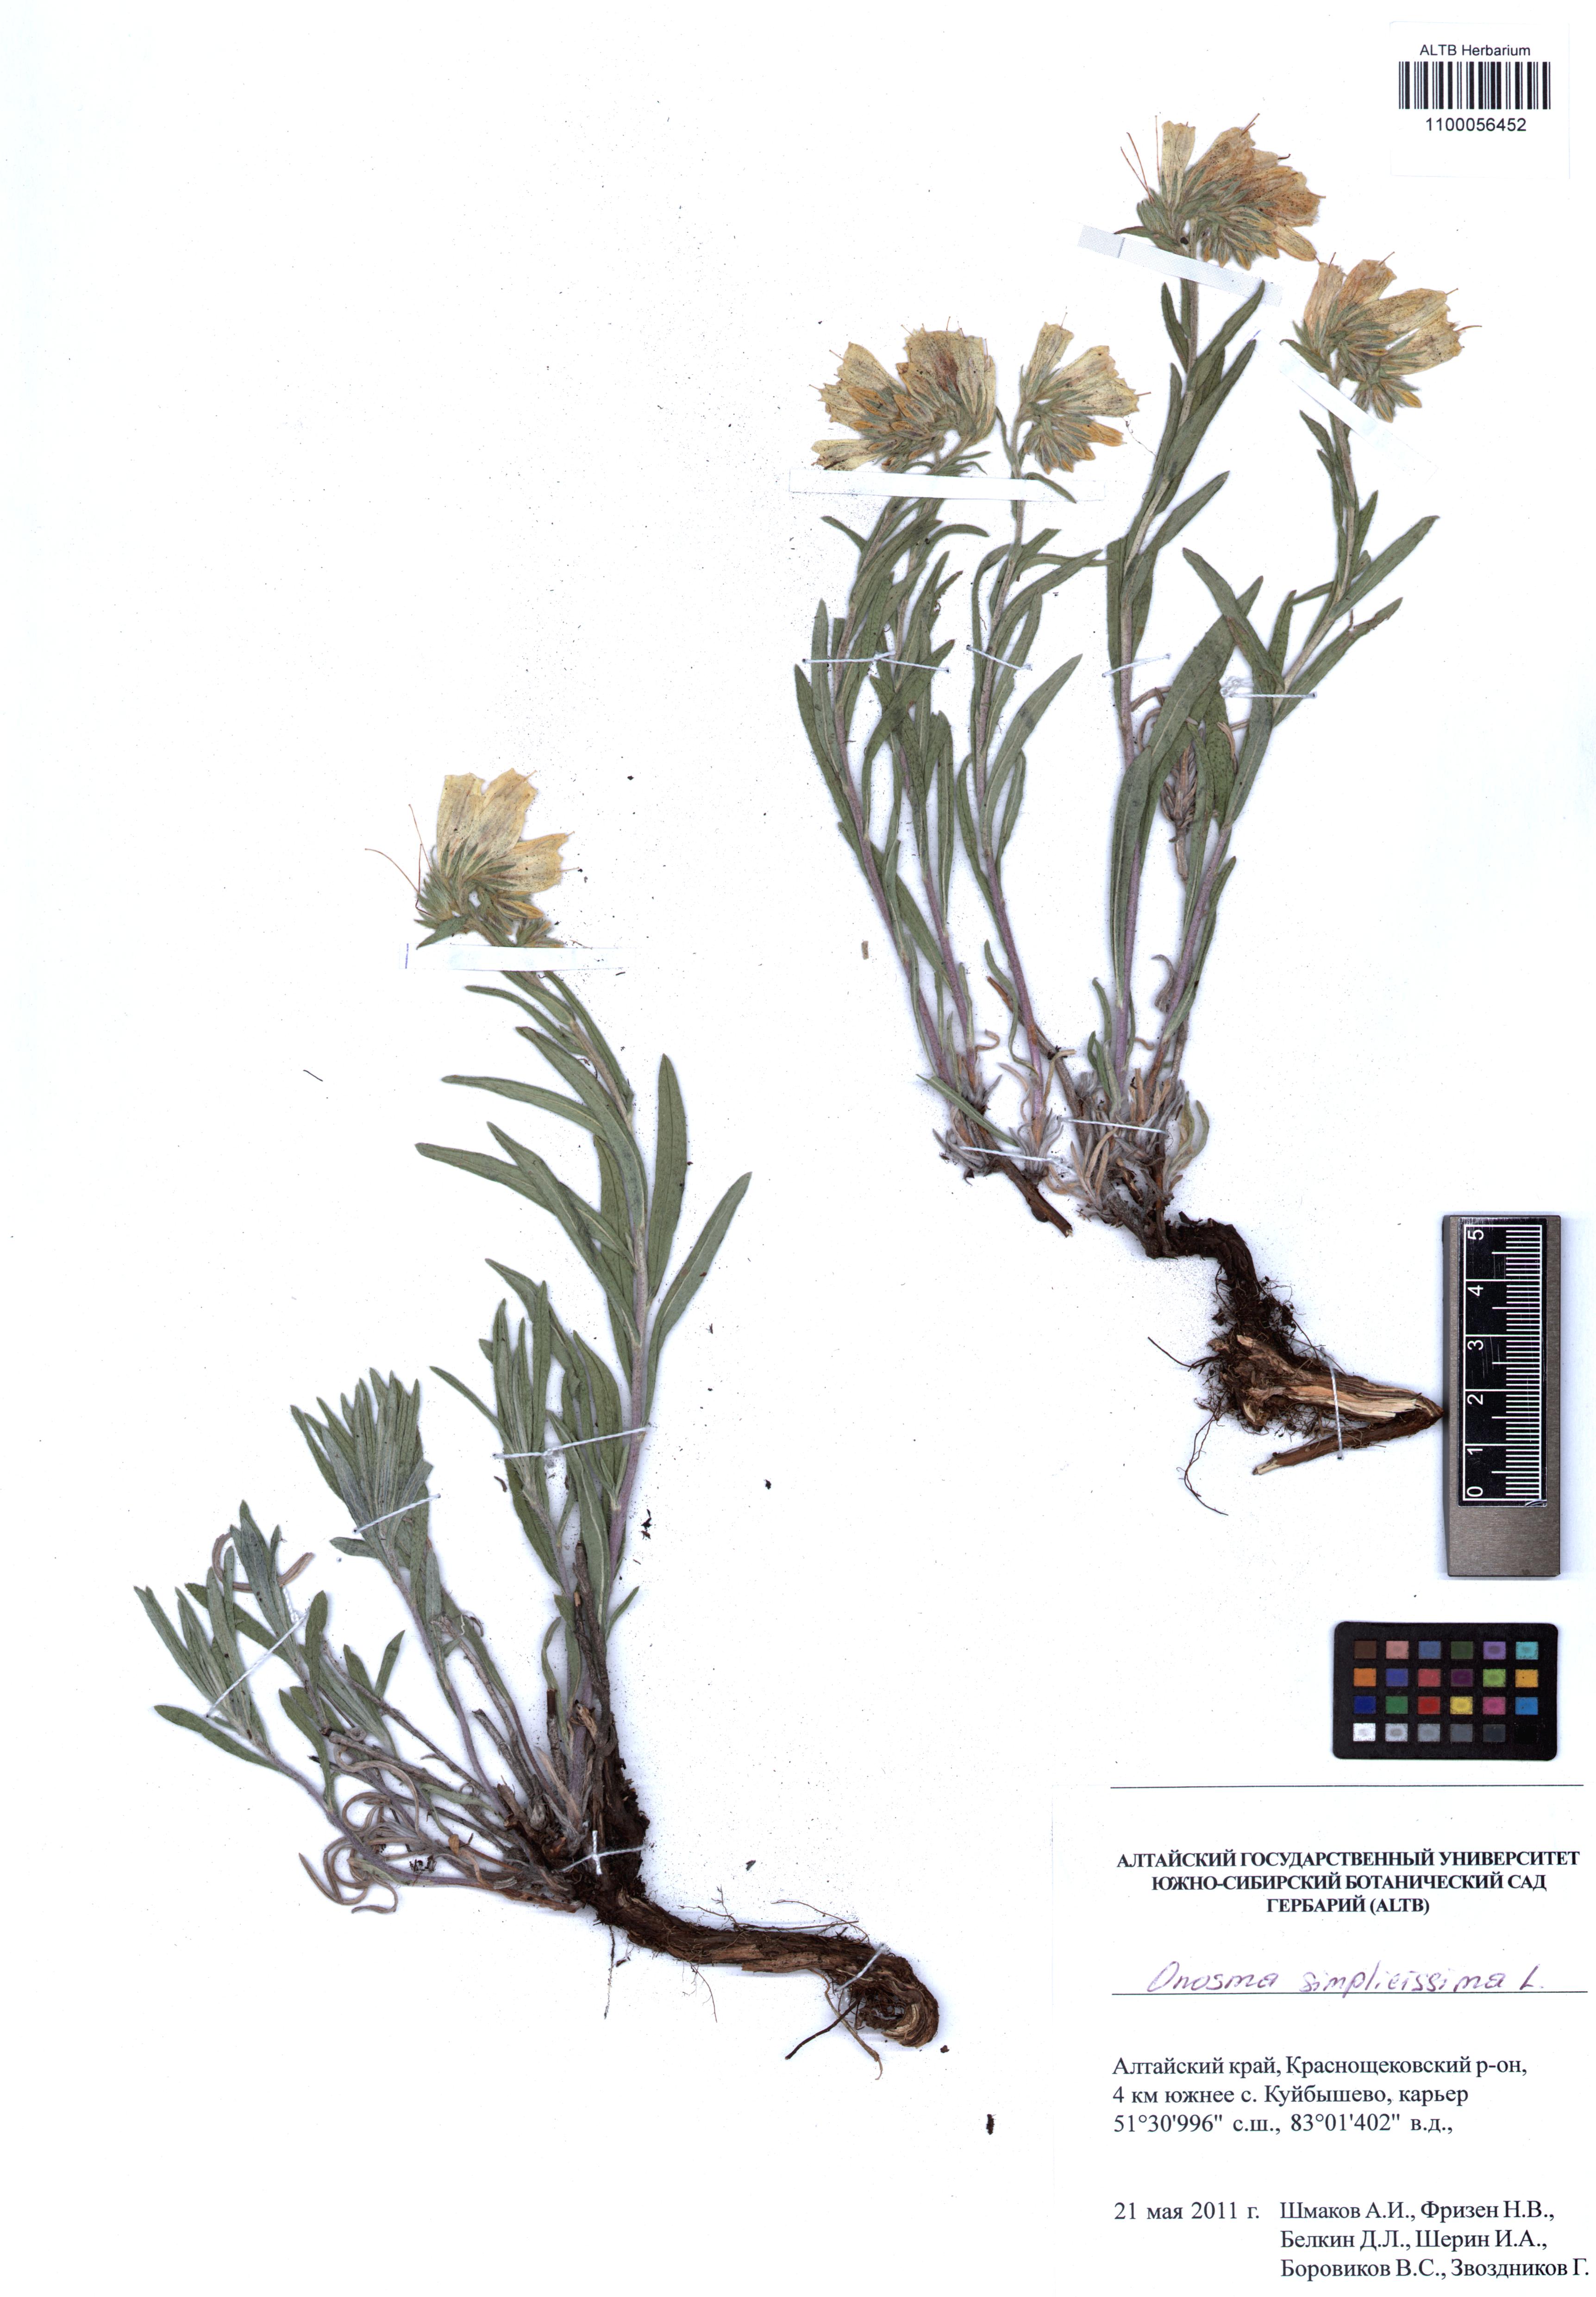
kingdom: Plantae
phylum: Tracheophyta
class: Magnoliopsida
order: Boraginales
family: Boraginaceae
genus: Onosma
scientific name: Onosma simplicissima
